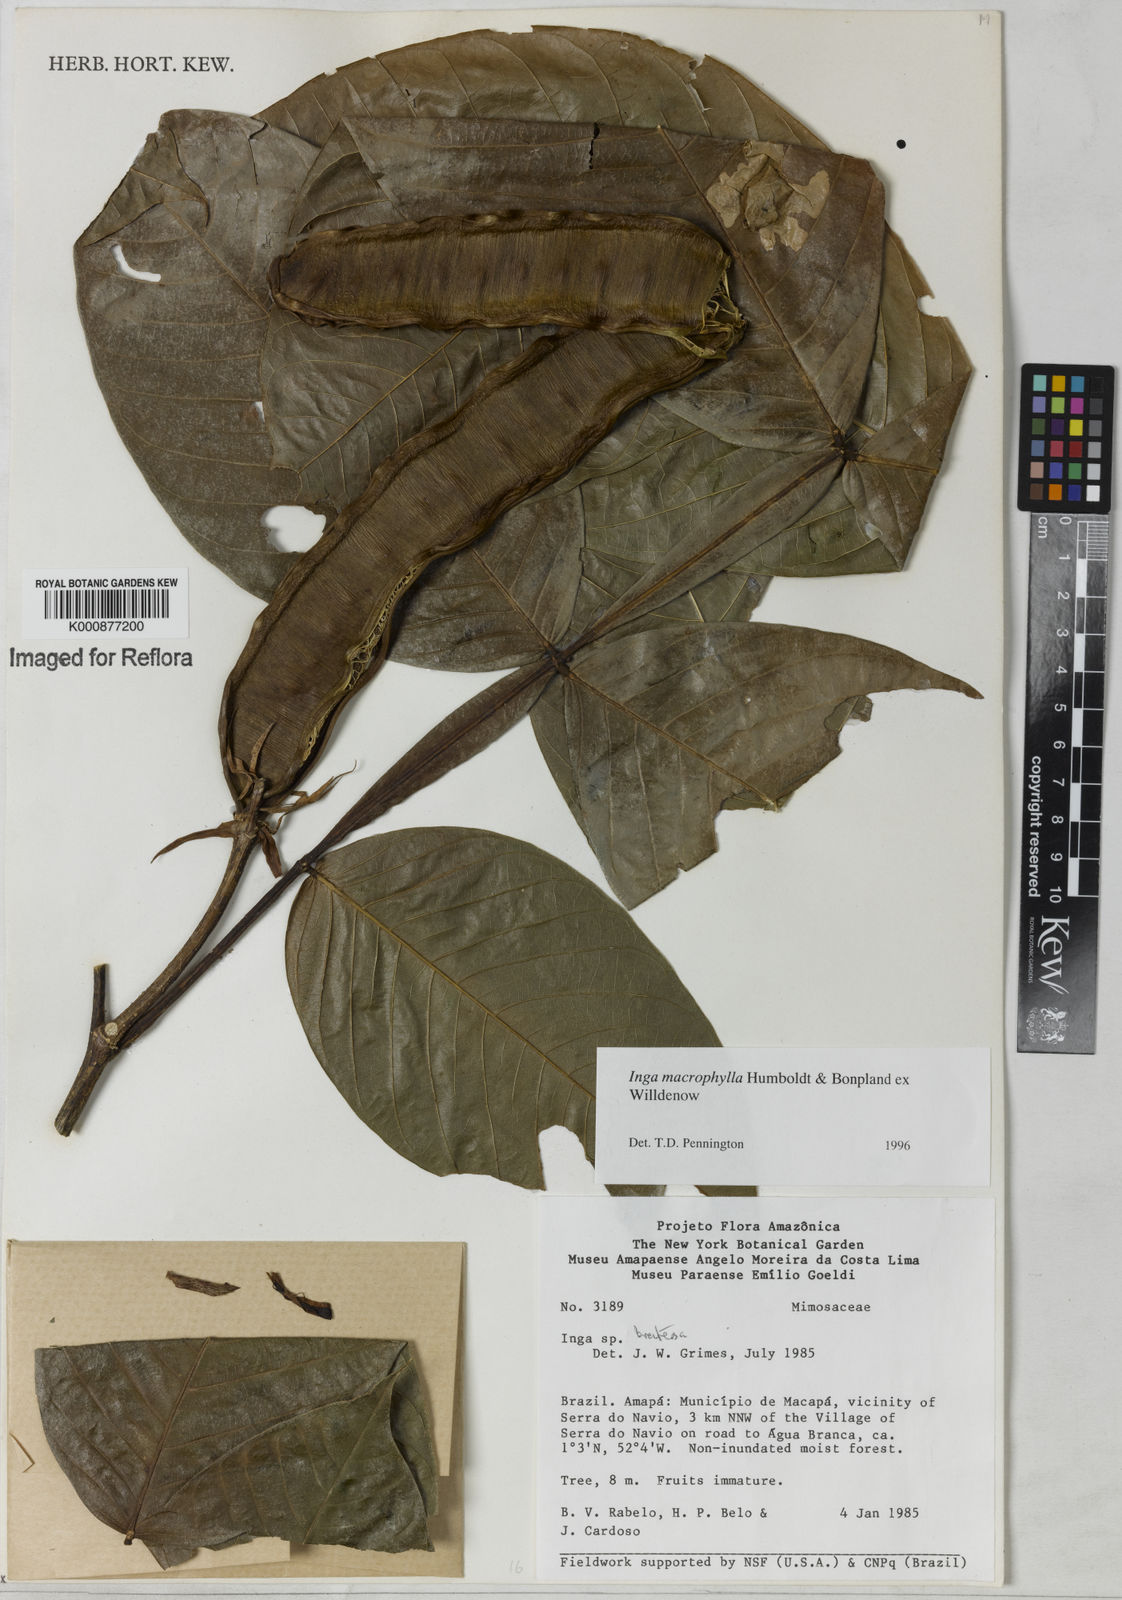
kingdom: Plantae
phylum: Tracheophyta
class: Magnoliopsida
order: Fabales
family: Fabaceae
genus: Inga
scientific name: Inga macrophylla
